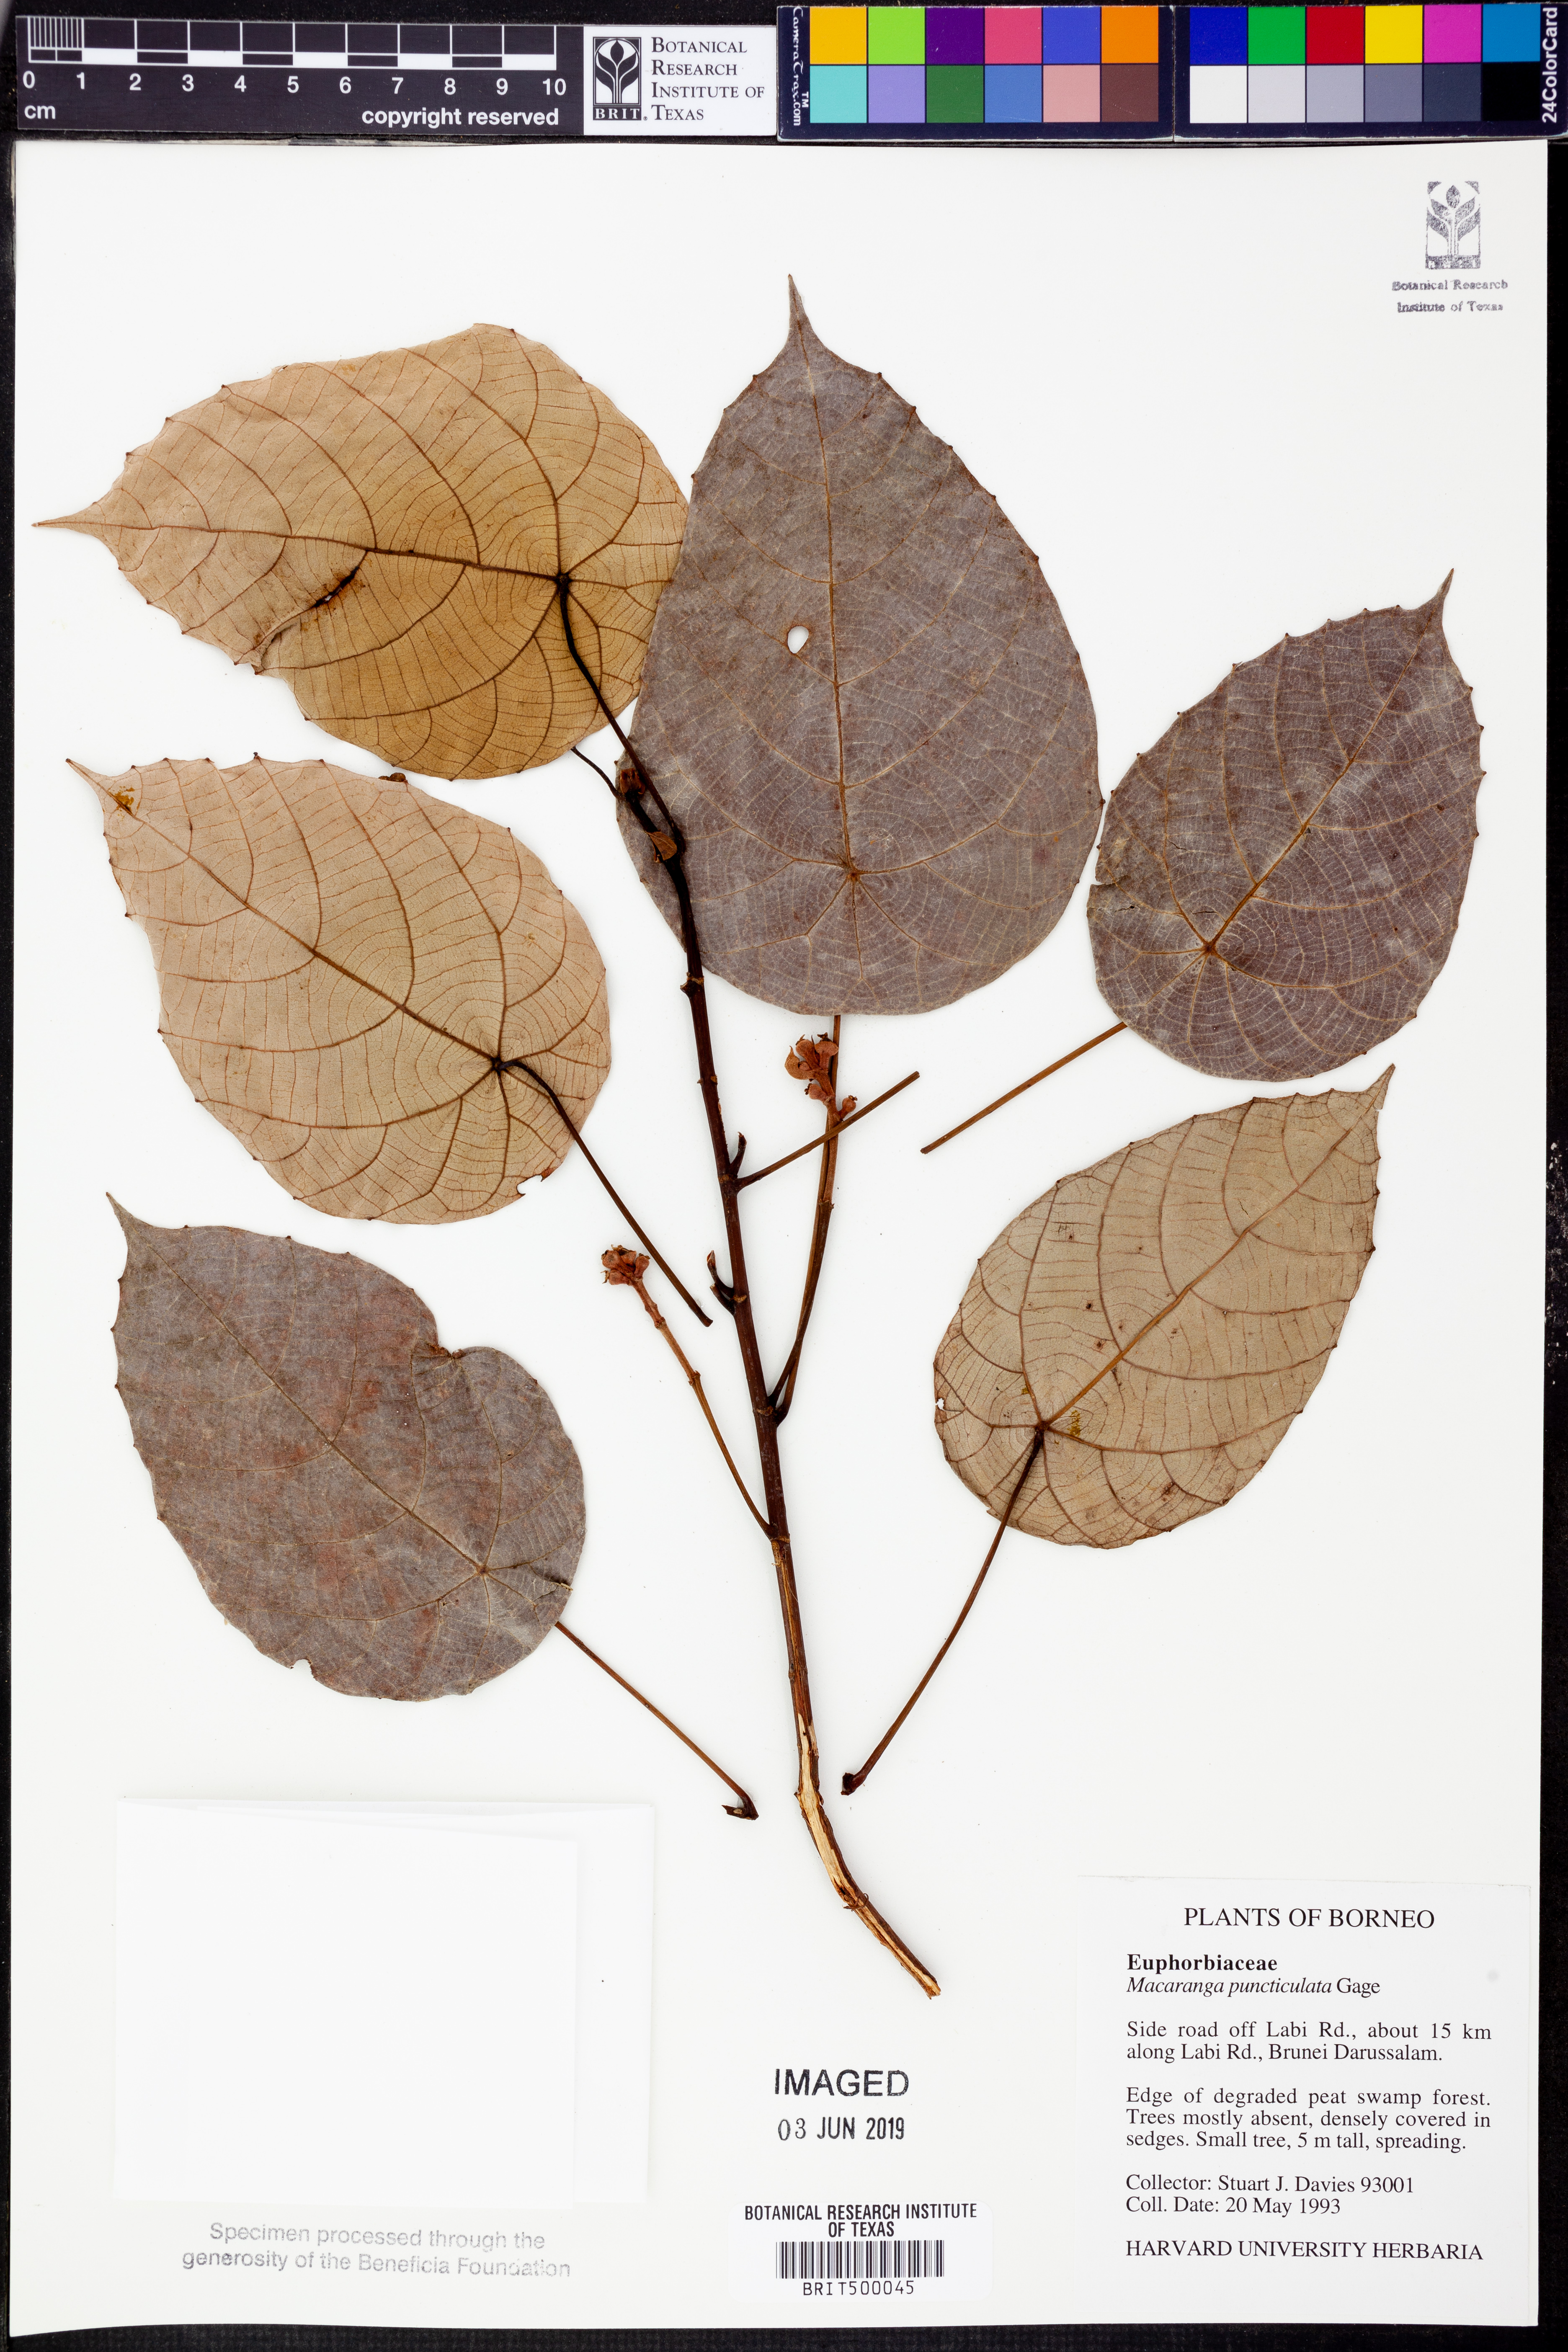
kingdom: Plantae
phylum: Tracheophyta
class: Magnoliopsida
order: Malpighiales
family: Euphorbiaceae
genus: Macaranga
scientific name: Macaranga puncticulata
